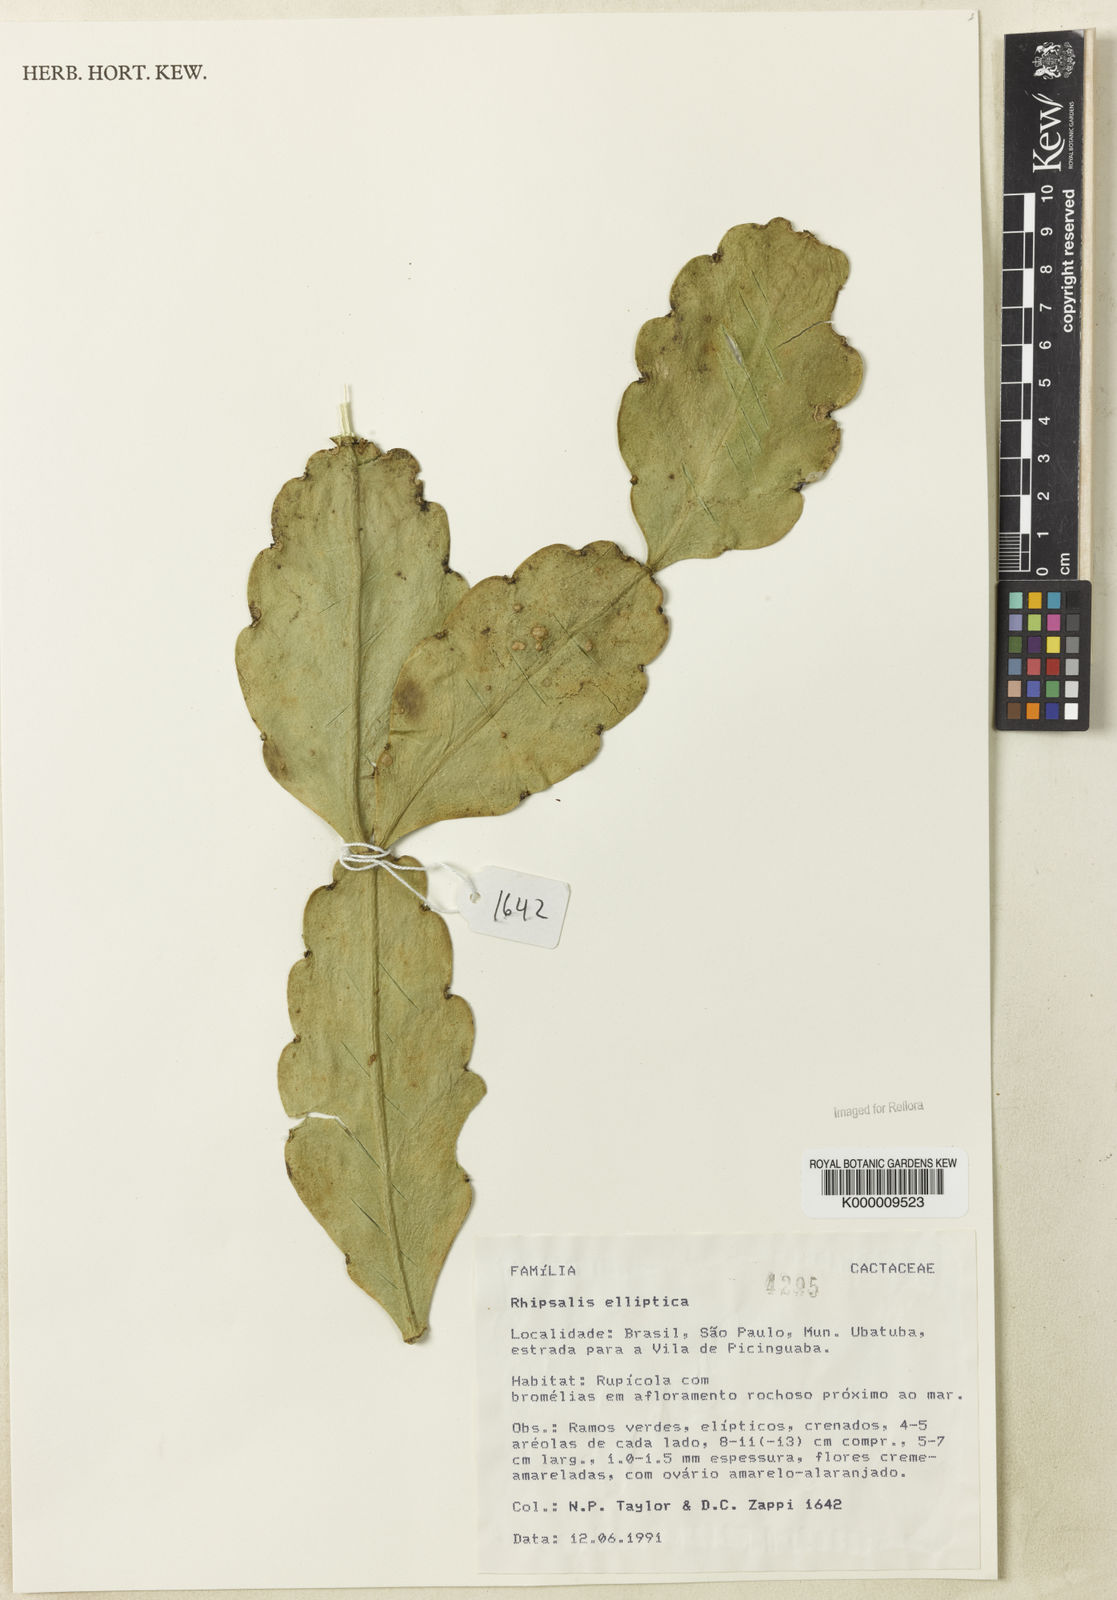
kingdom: Plantae
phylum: Tracheophyta
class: Magnoliopsida
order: Caryophyllales
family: Cactaceae
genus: Rhipsalis
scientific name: Rhipsalis elliptica
